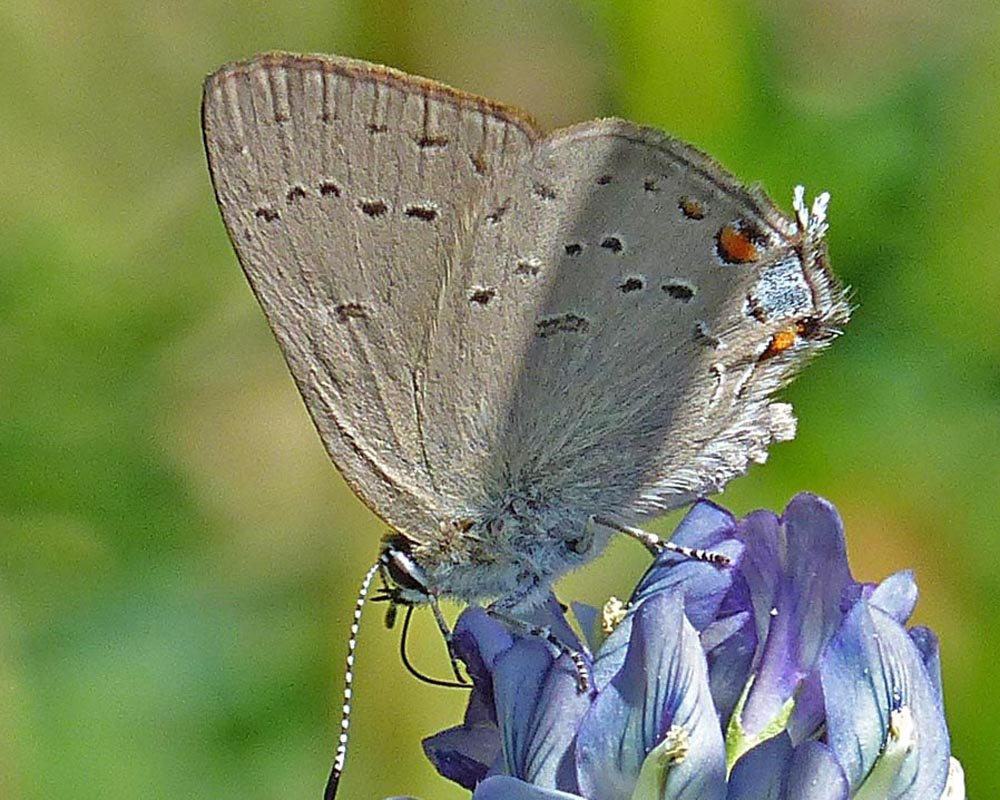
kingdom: Animalia
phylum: Arthropoda
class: Insecta
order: Lepidoptera
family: Lycaenidae
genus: Strymon
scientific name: Strymon sylvinus
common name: Sylvan Hairstreak
